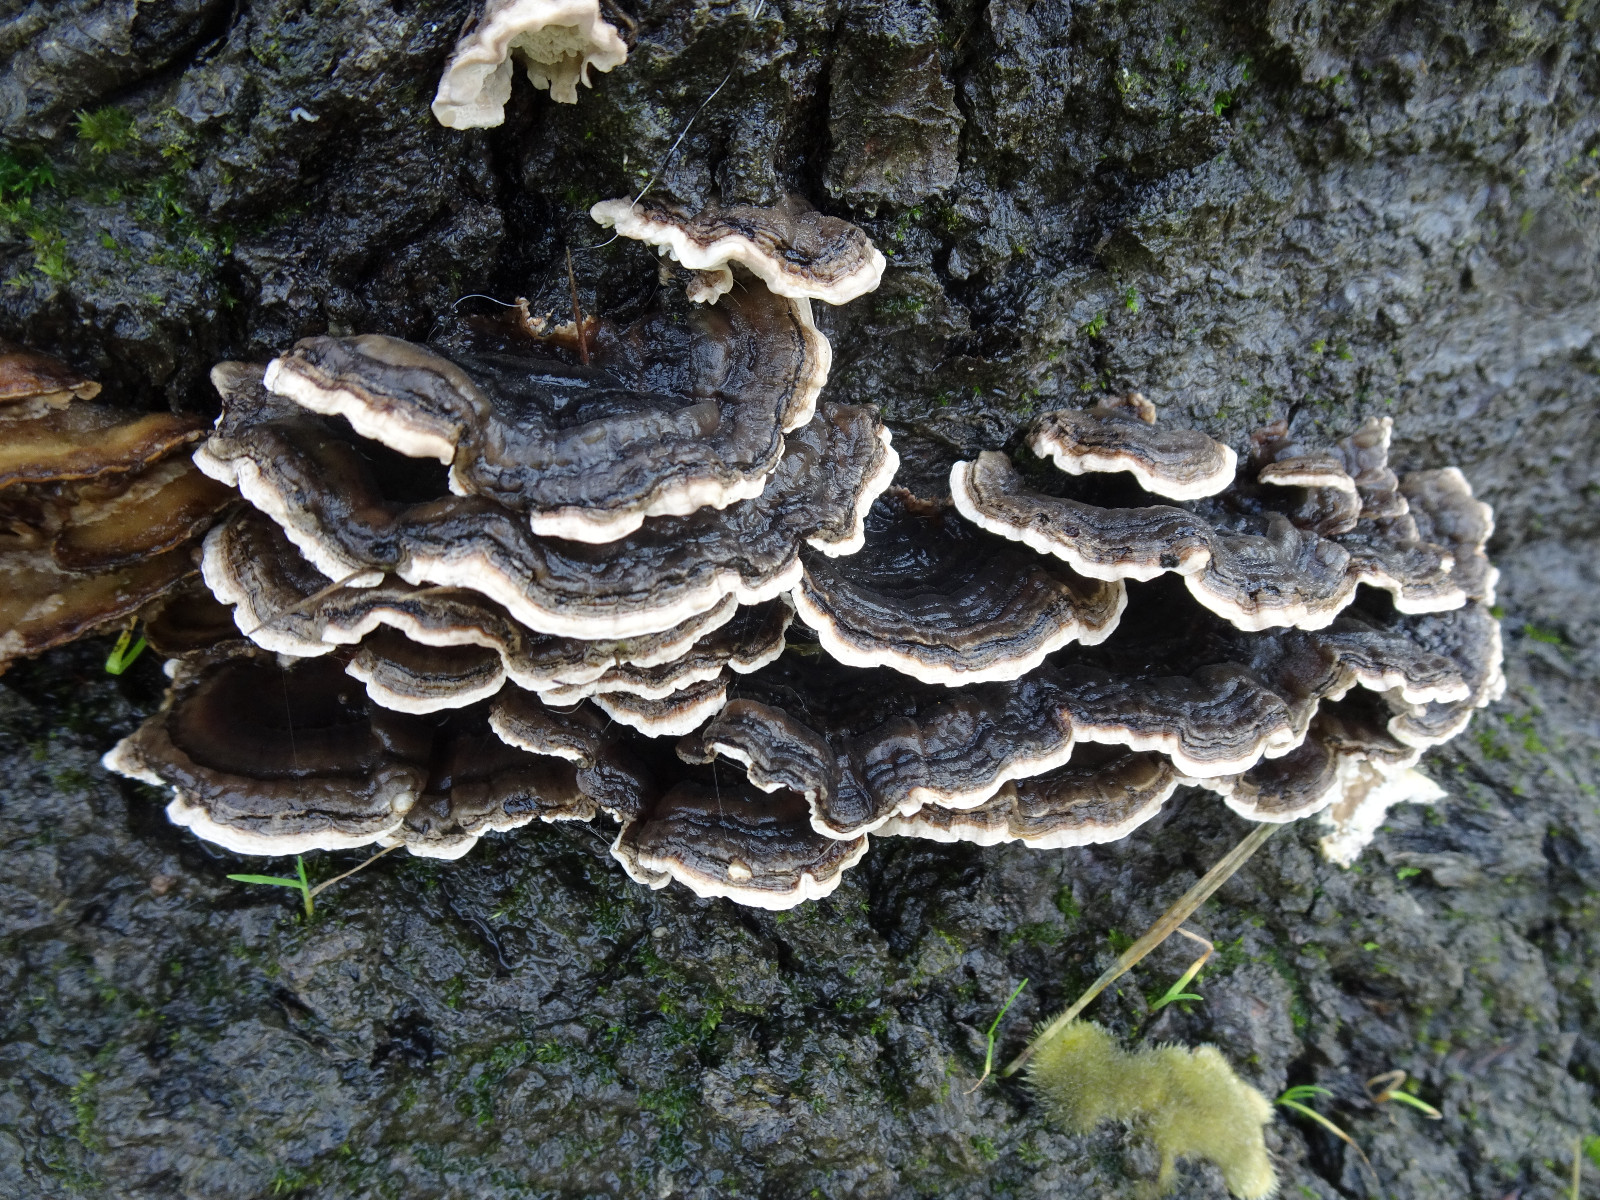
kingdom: Fungi
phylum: Basidiomycota
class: Agaricomycetes
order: Polyporales
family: Polyporaceae
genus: Trametes
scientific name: Trametes versicolor
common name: broget læderporesvamp
